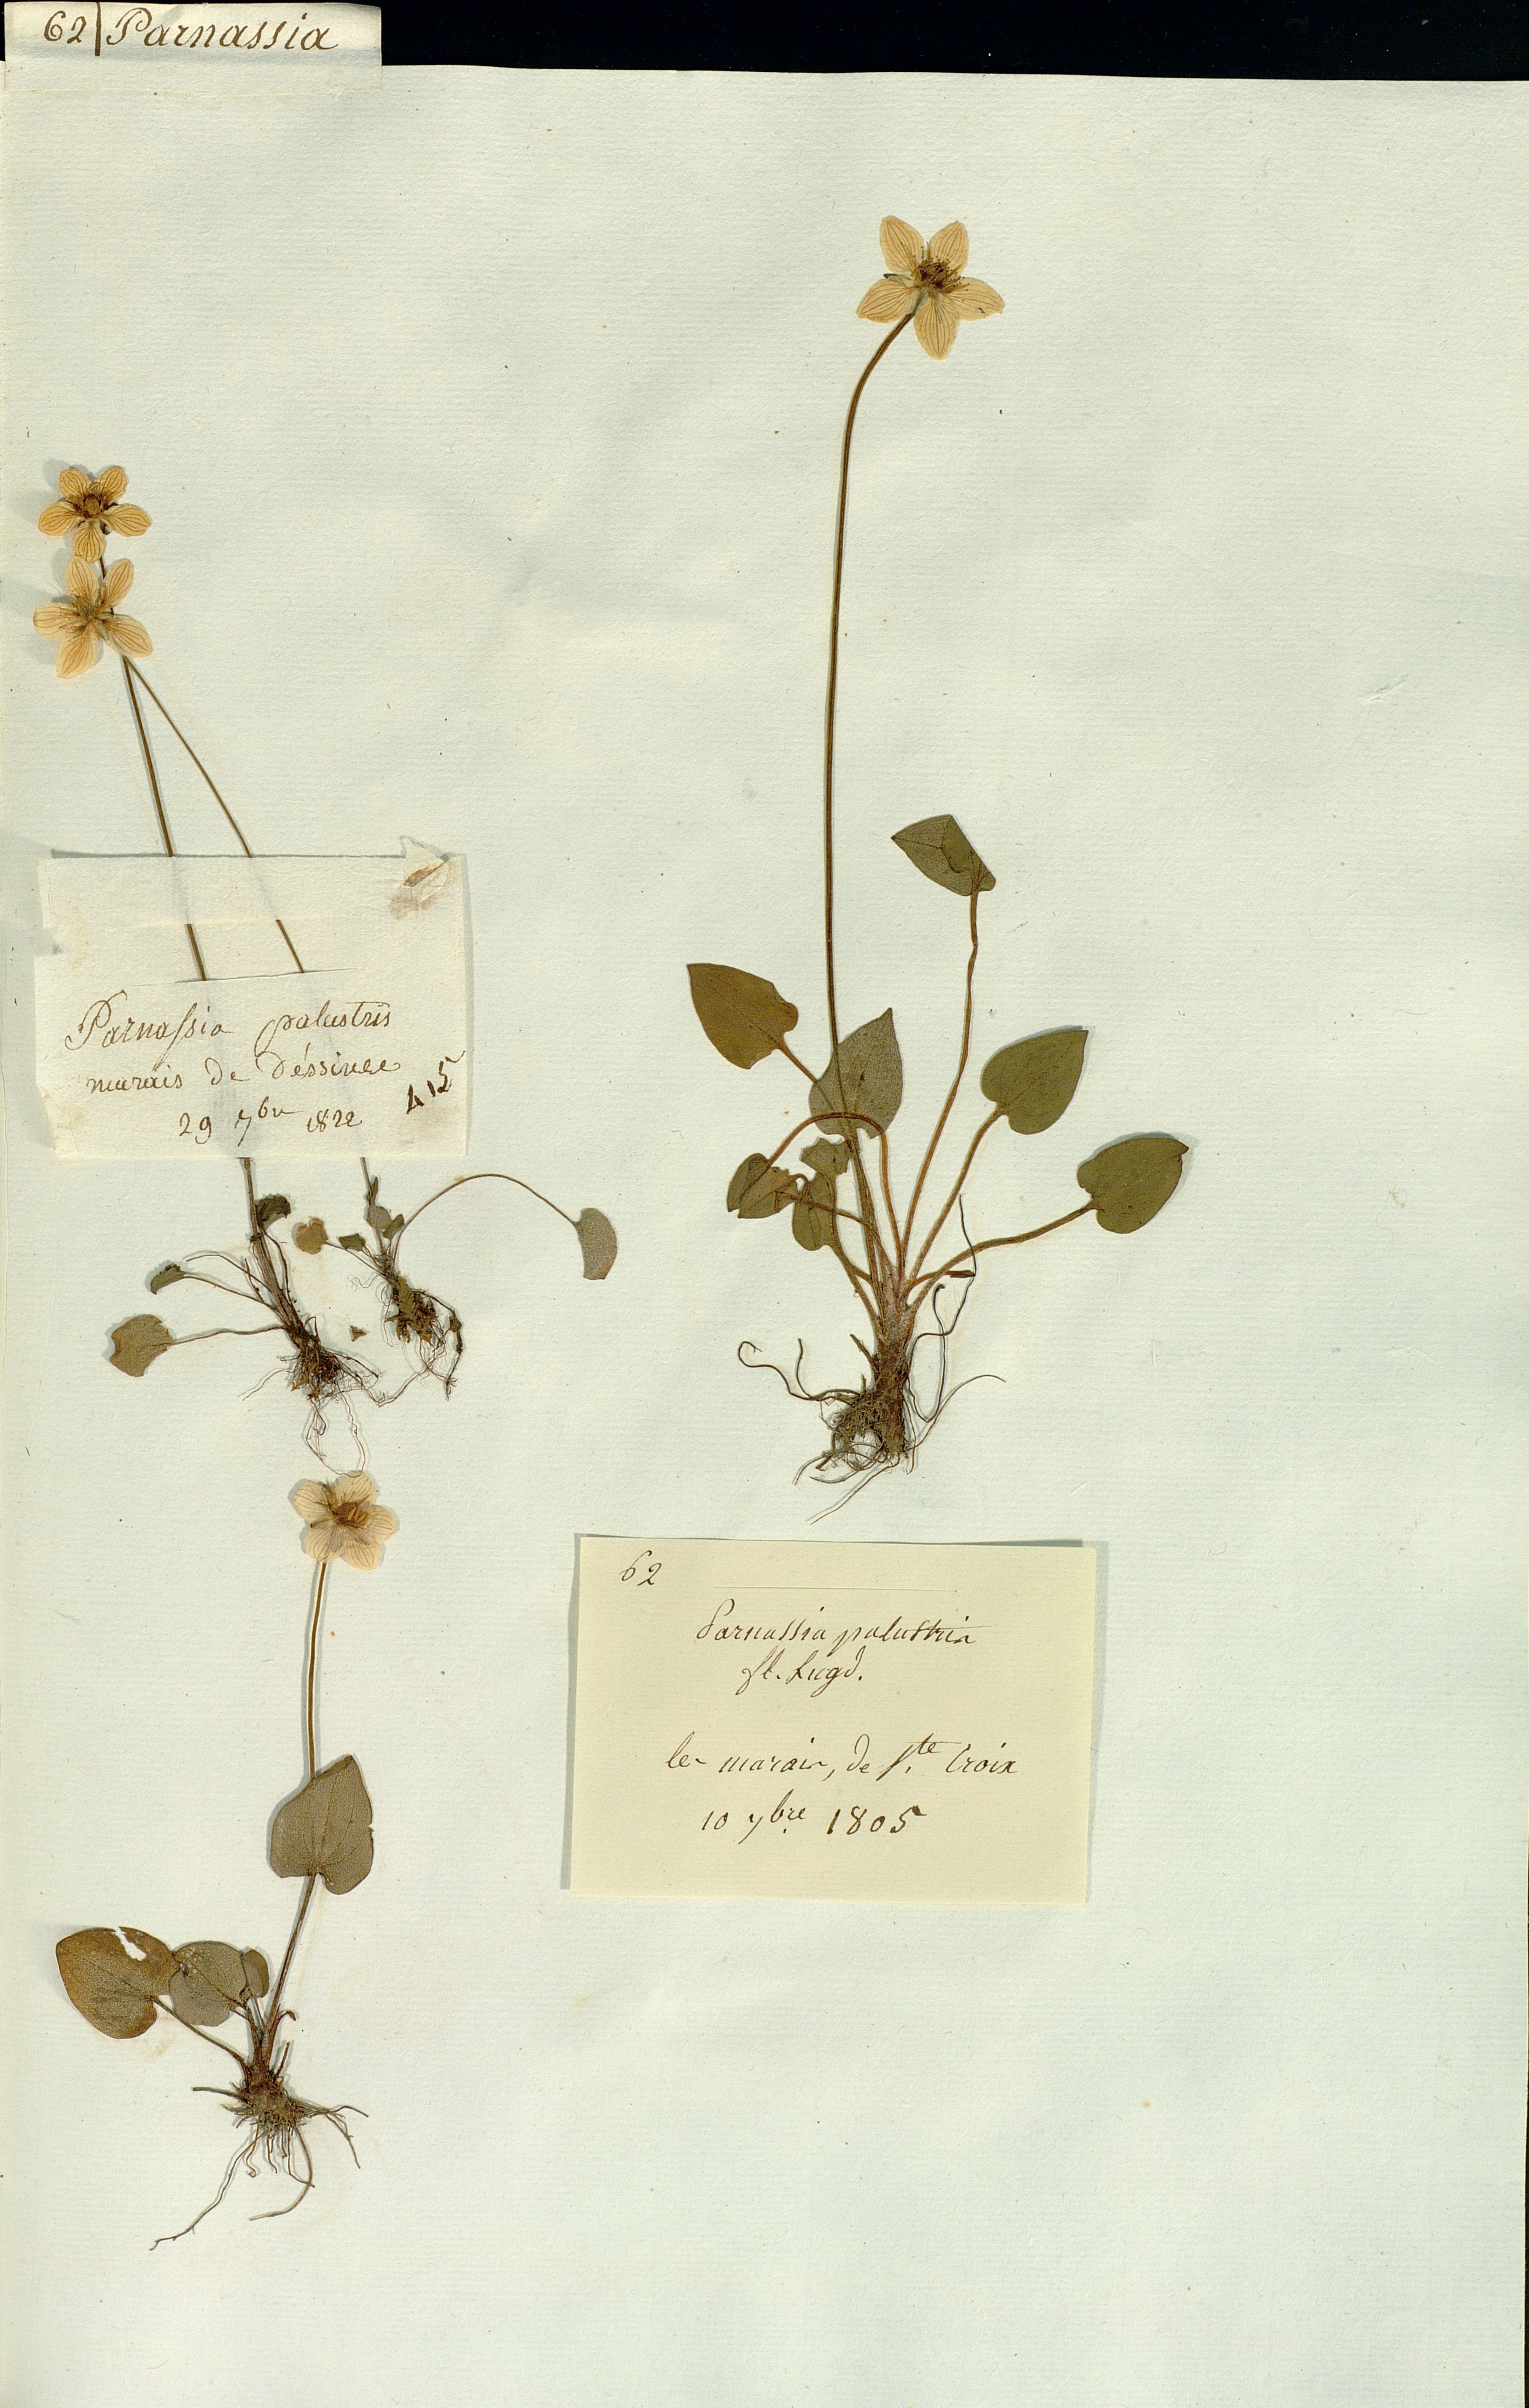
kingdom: Plantae
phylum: Tracheophyta
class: Magnoliopsida
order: Celastrales
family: Parnassiaceae
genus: Parnassia
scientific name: Parnassia palustris
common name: Grass-of-parnassus
